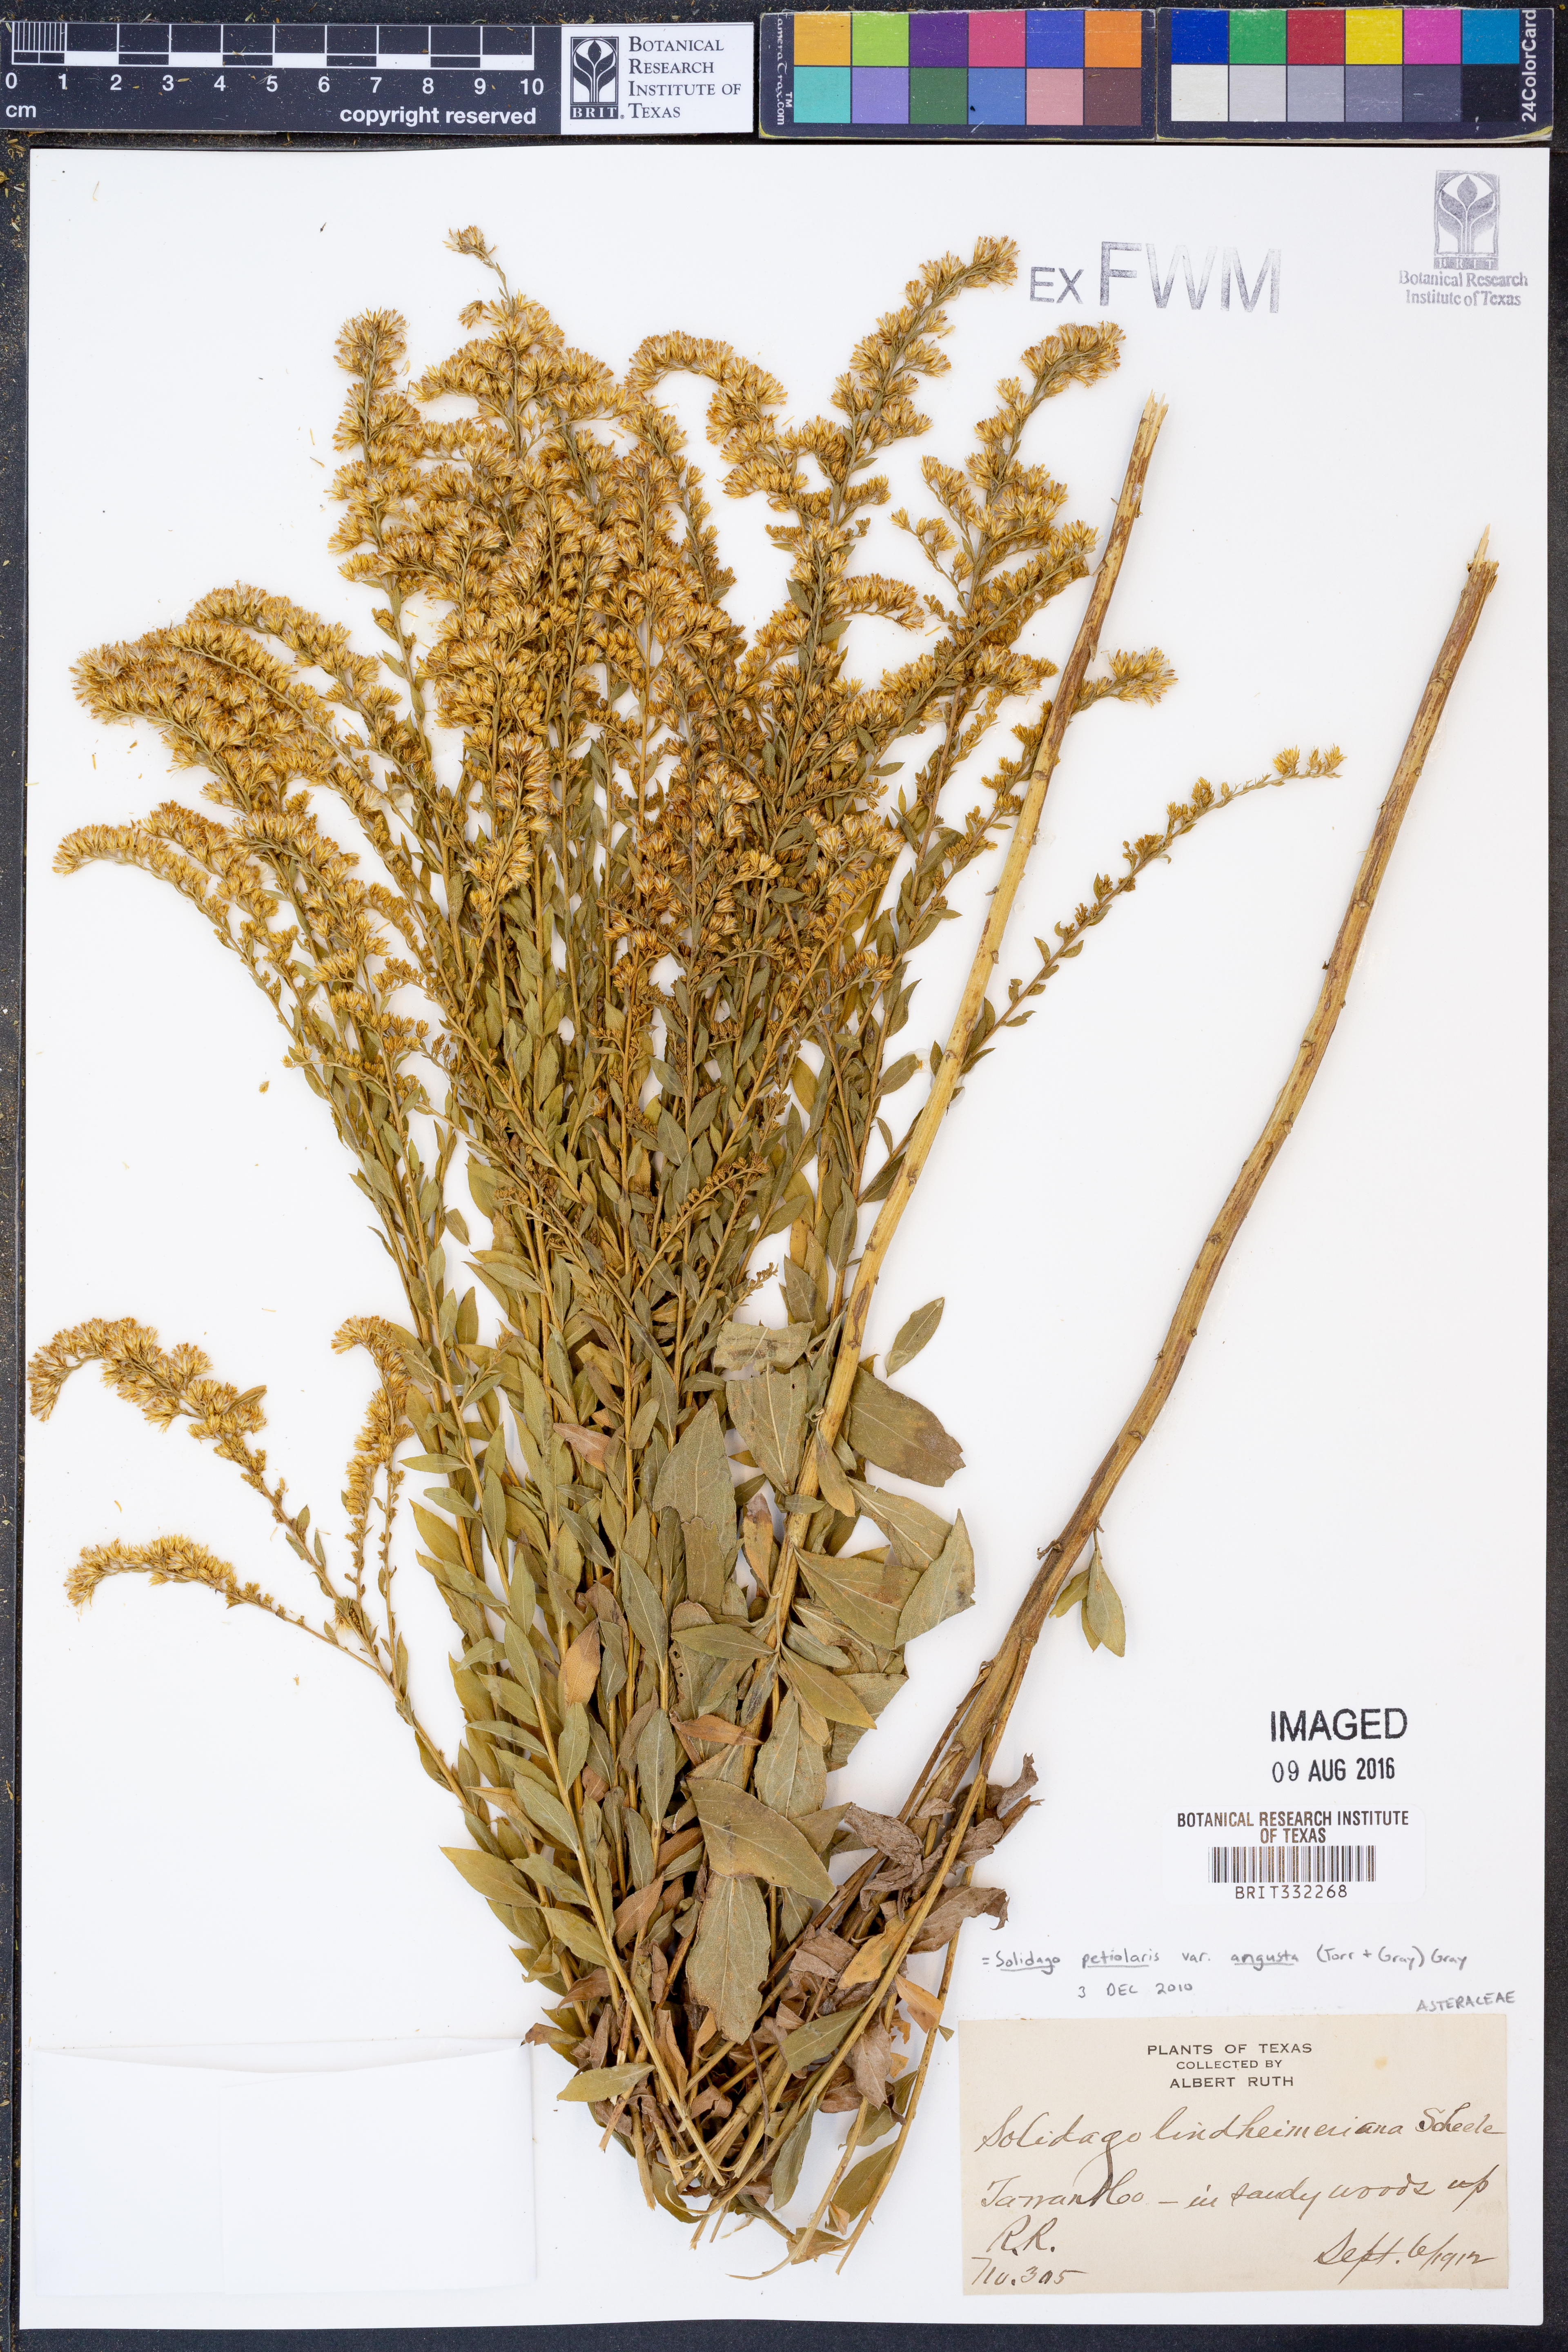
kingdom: Plantae
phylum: Tracheophyta
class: Magnoliopsida
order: Asterales
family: Asteraceae
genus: Solidago
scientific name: Solidago petiolaris
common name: Downy ragged goldenrod
